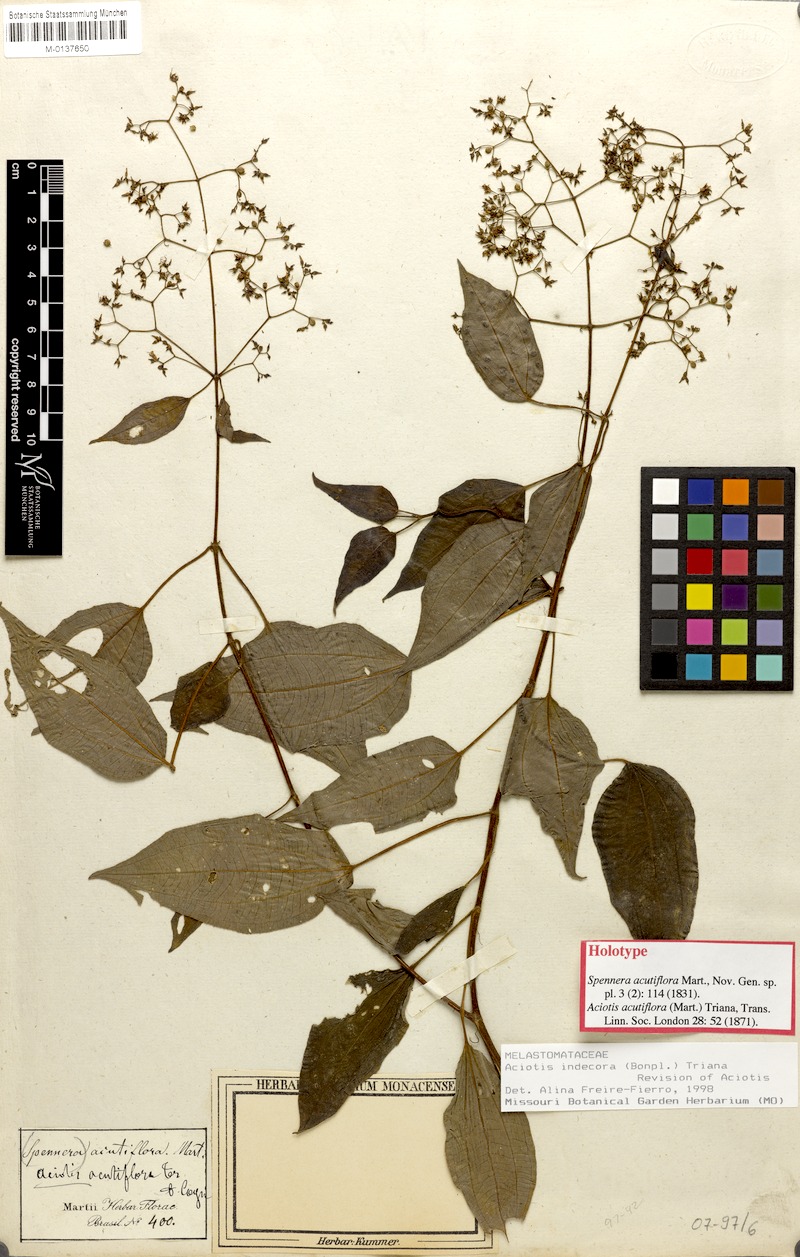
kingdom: Plantae
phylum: Tracheophyta
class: Magnoliopsida
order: Myrtales
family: Melastomataceae
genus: Aciotis
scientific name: Aciotis indecora
